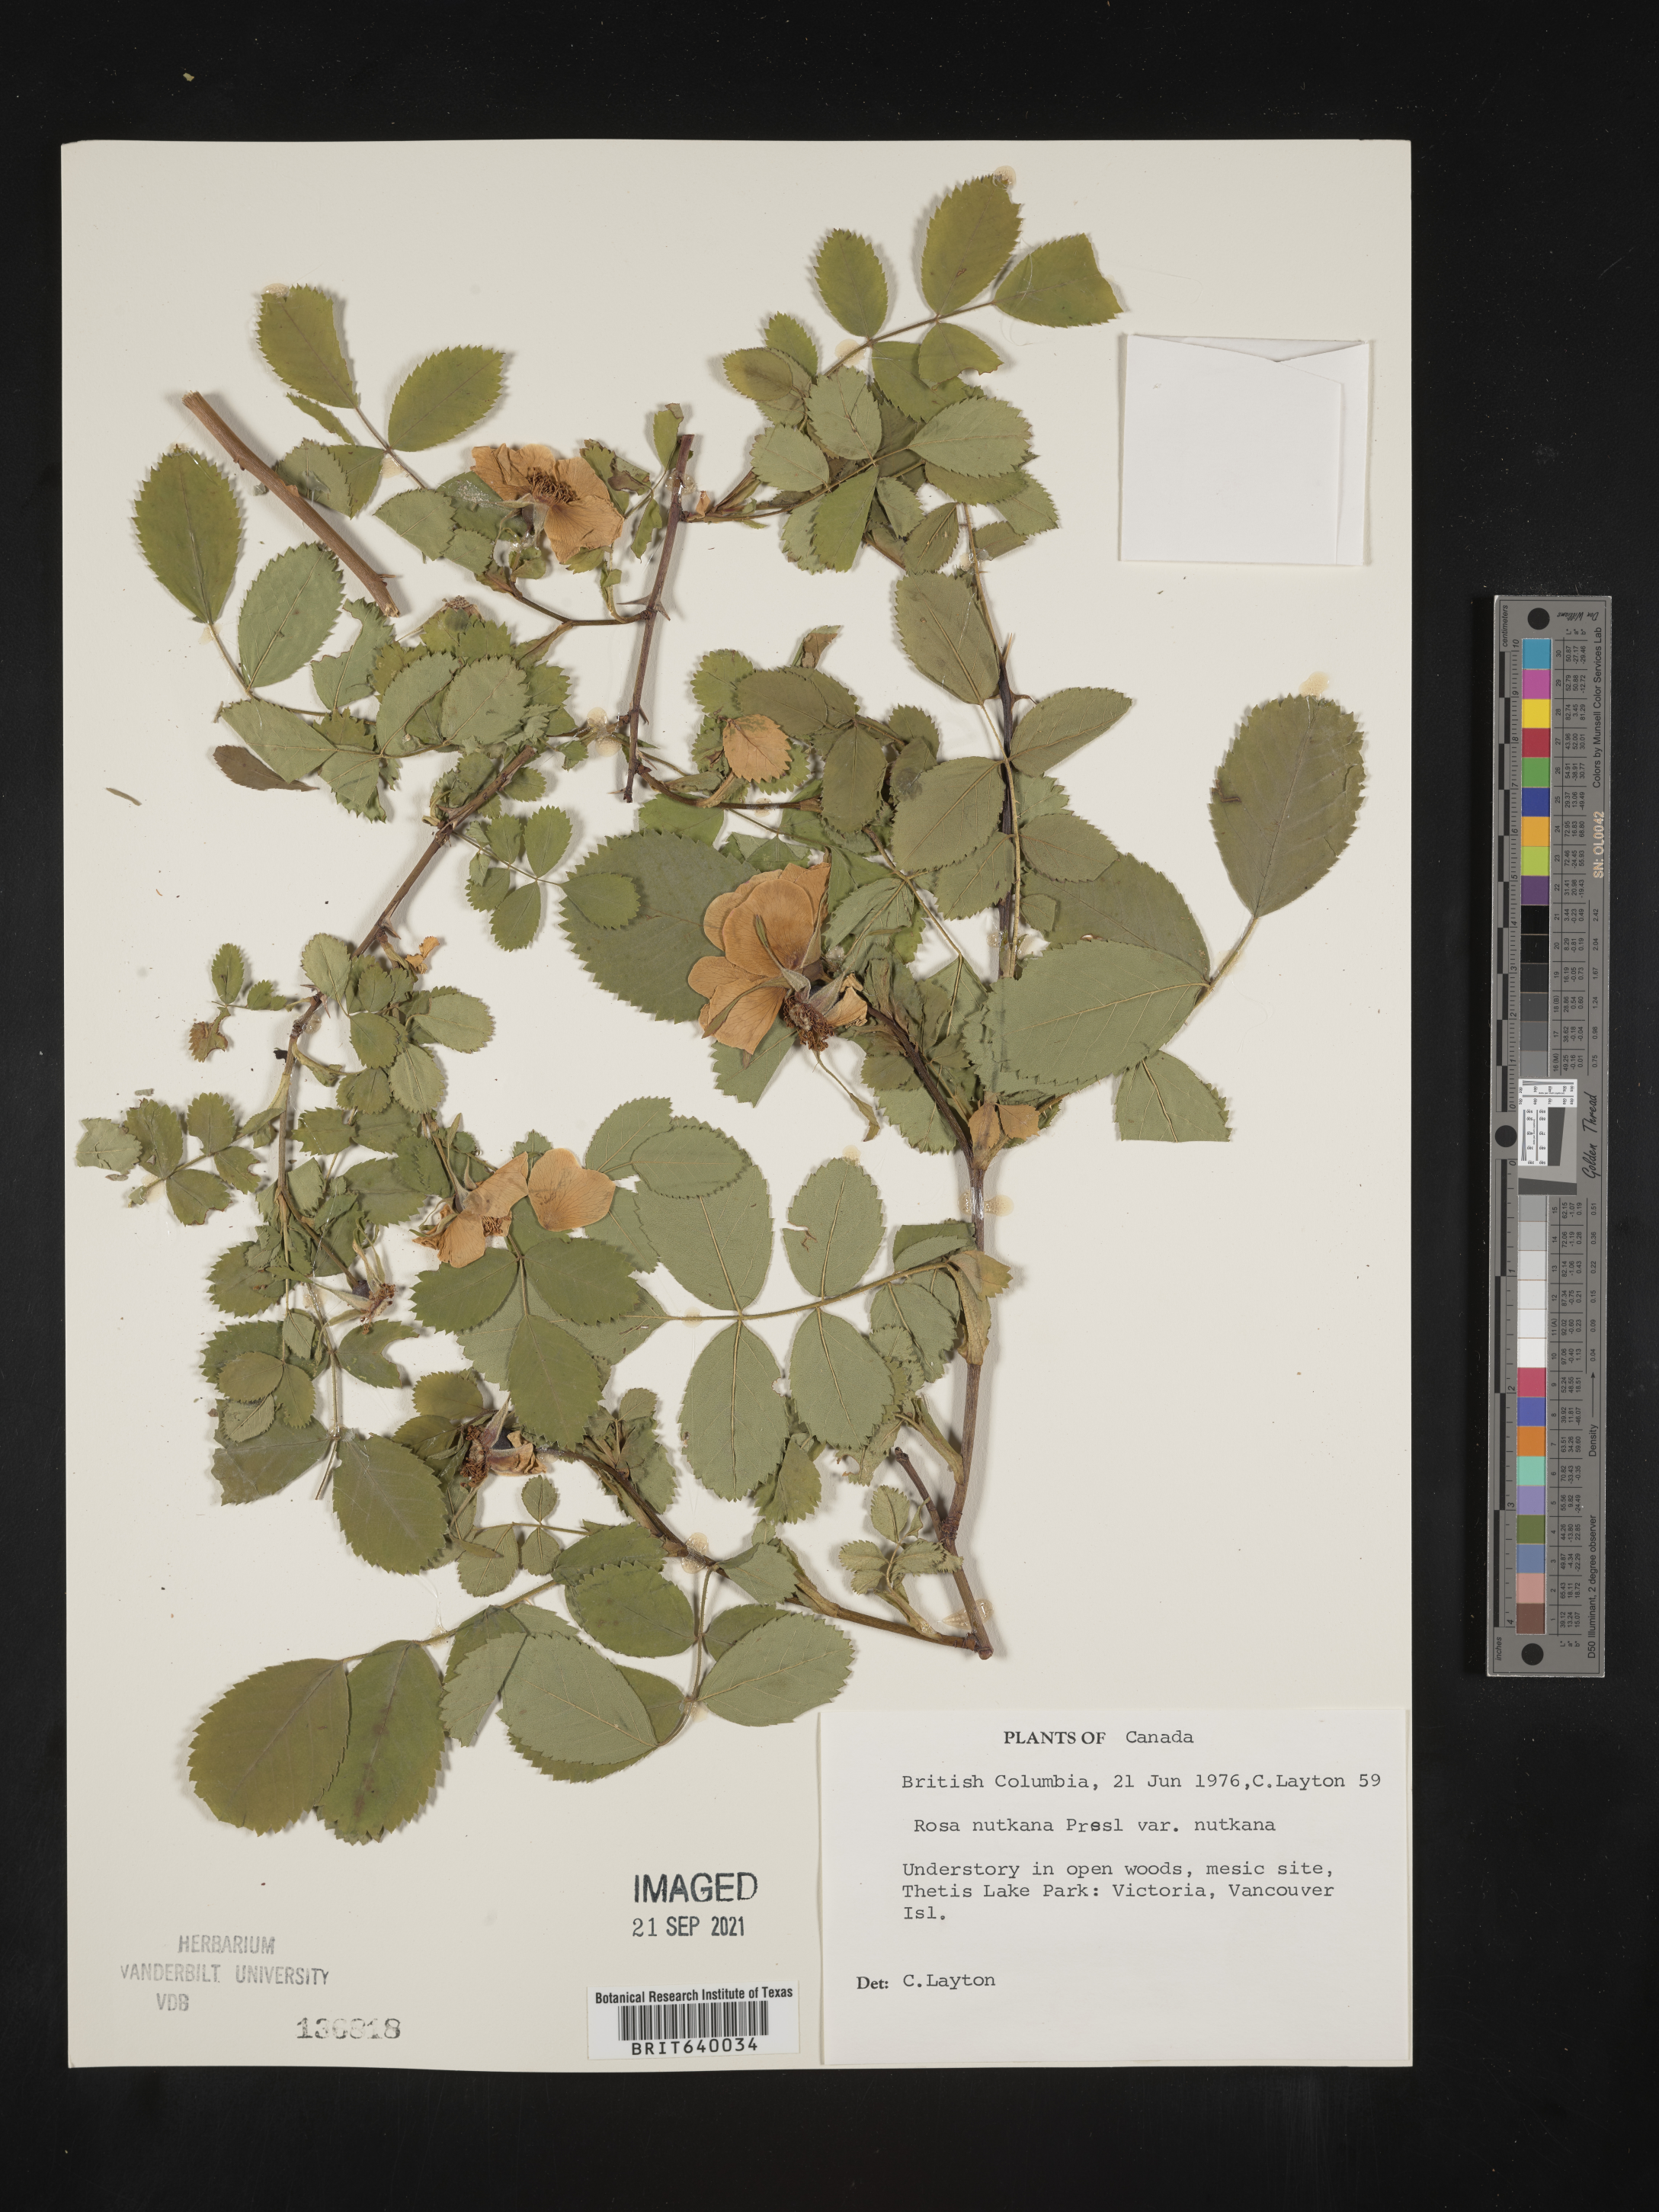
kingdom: Plantae
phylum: Tracheophyta
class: Magnoliopsida
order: Rosales
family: Rosaceae
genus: Rosa
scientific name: Rosa
